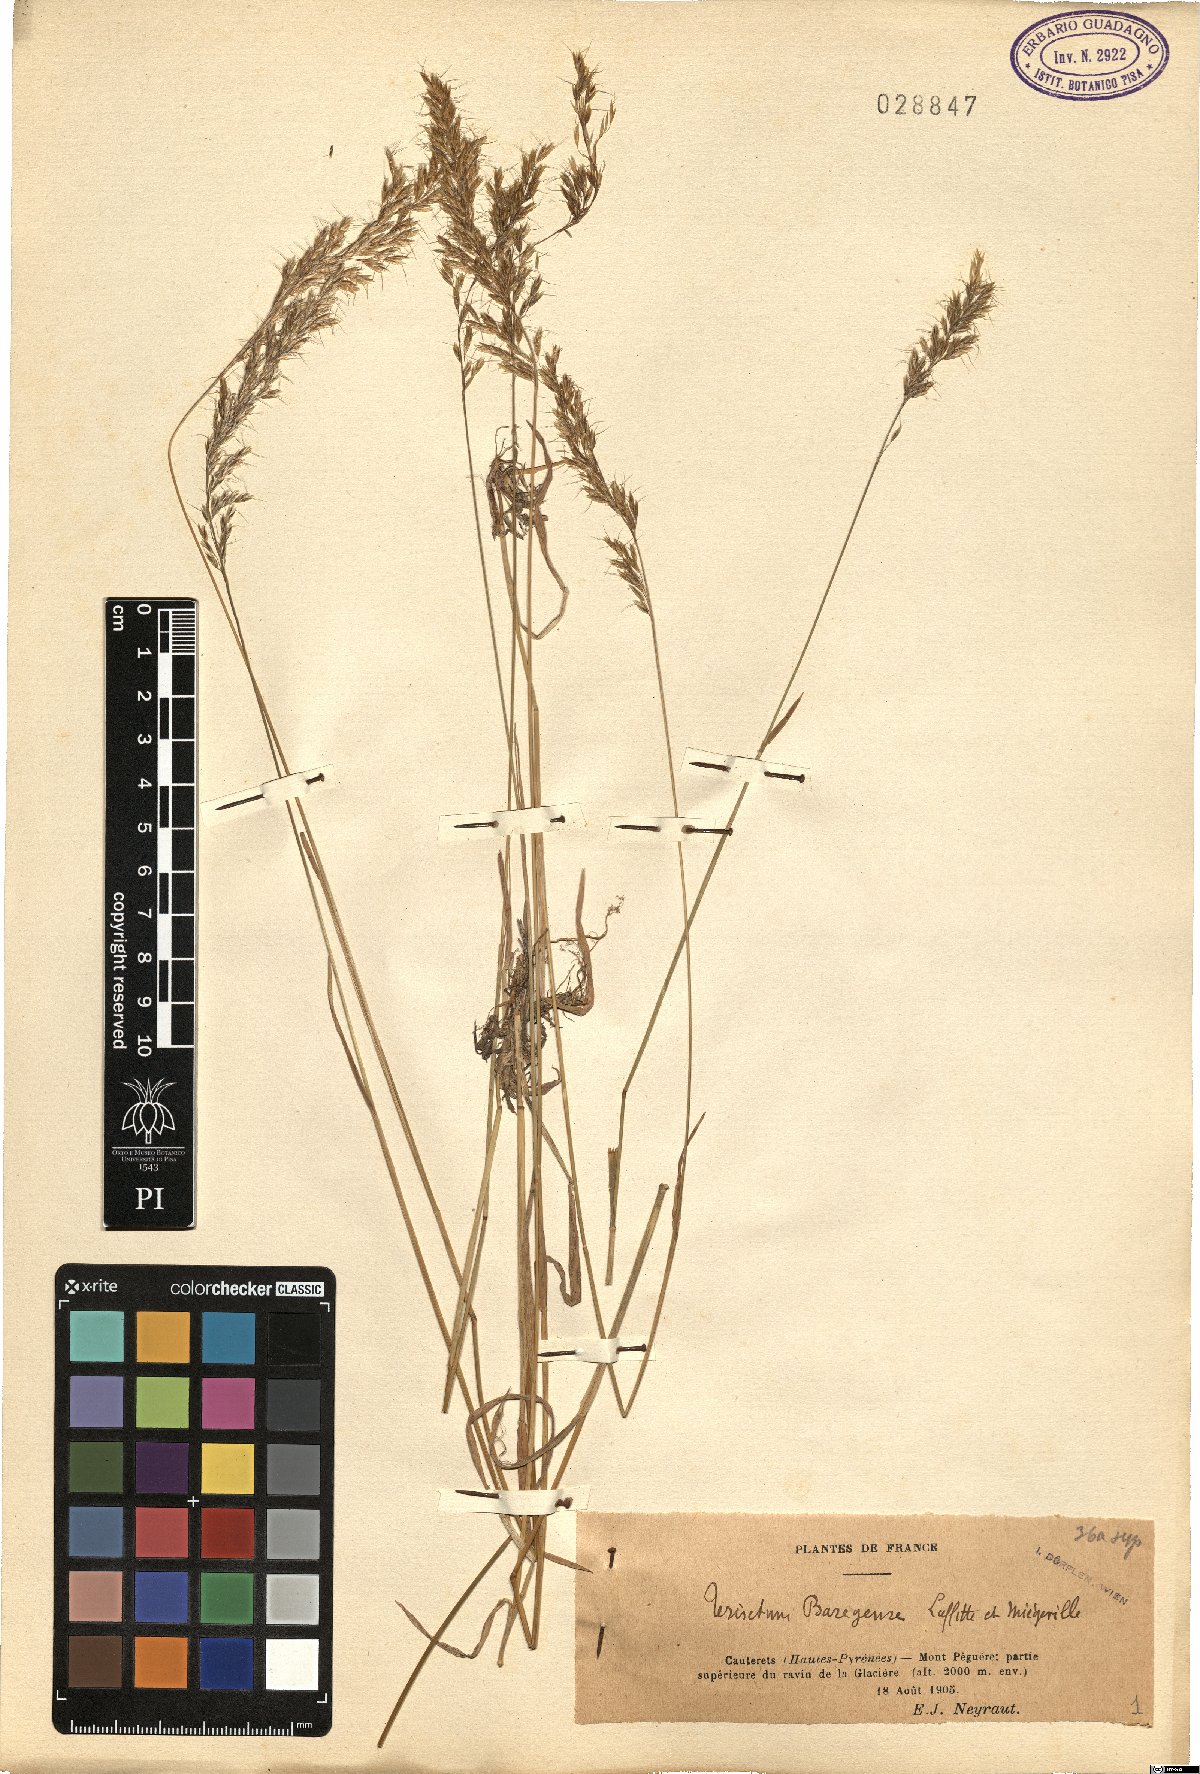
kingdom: Plantae
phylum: Tracheophyta
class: Liliopsida
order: Poales
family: Poaceae
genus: Trisetum
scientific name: Trisetum alpestre
